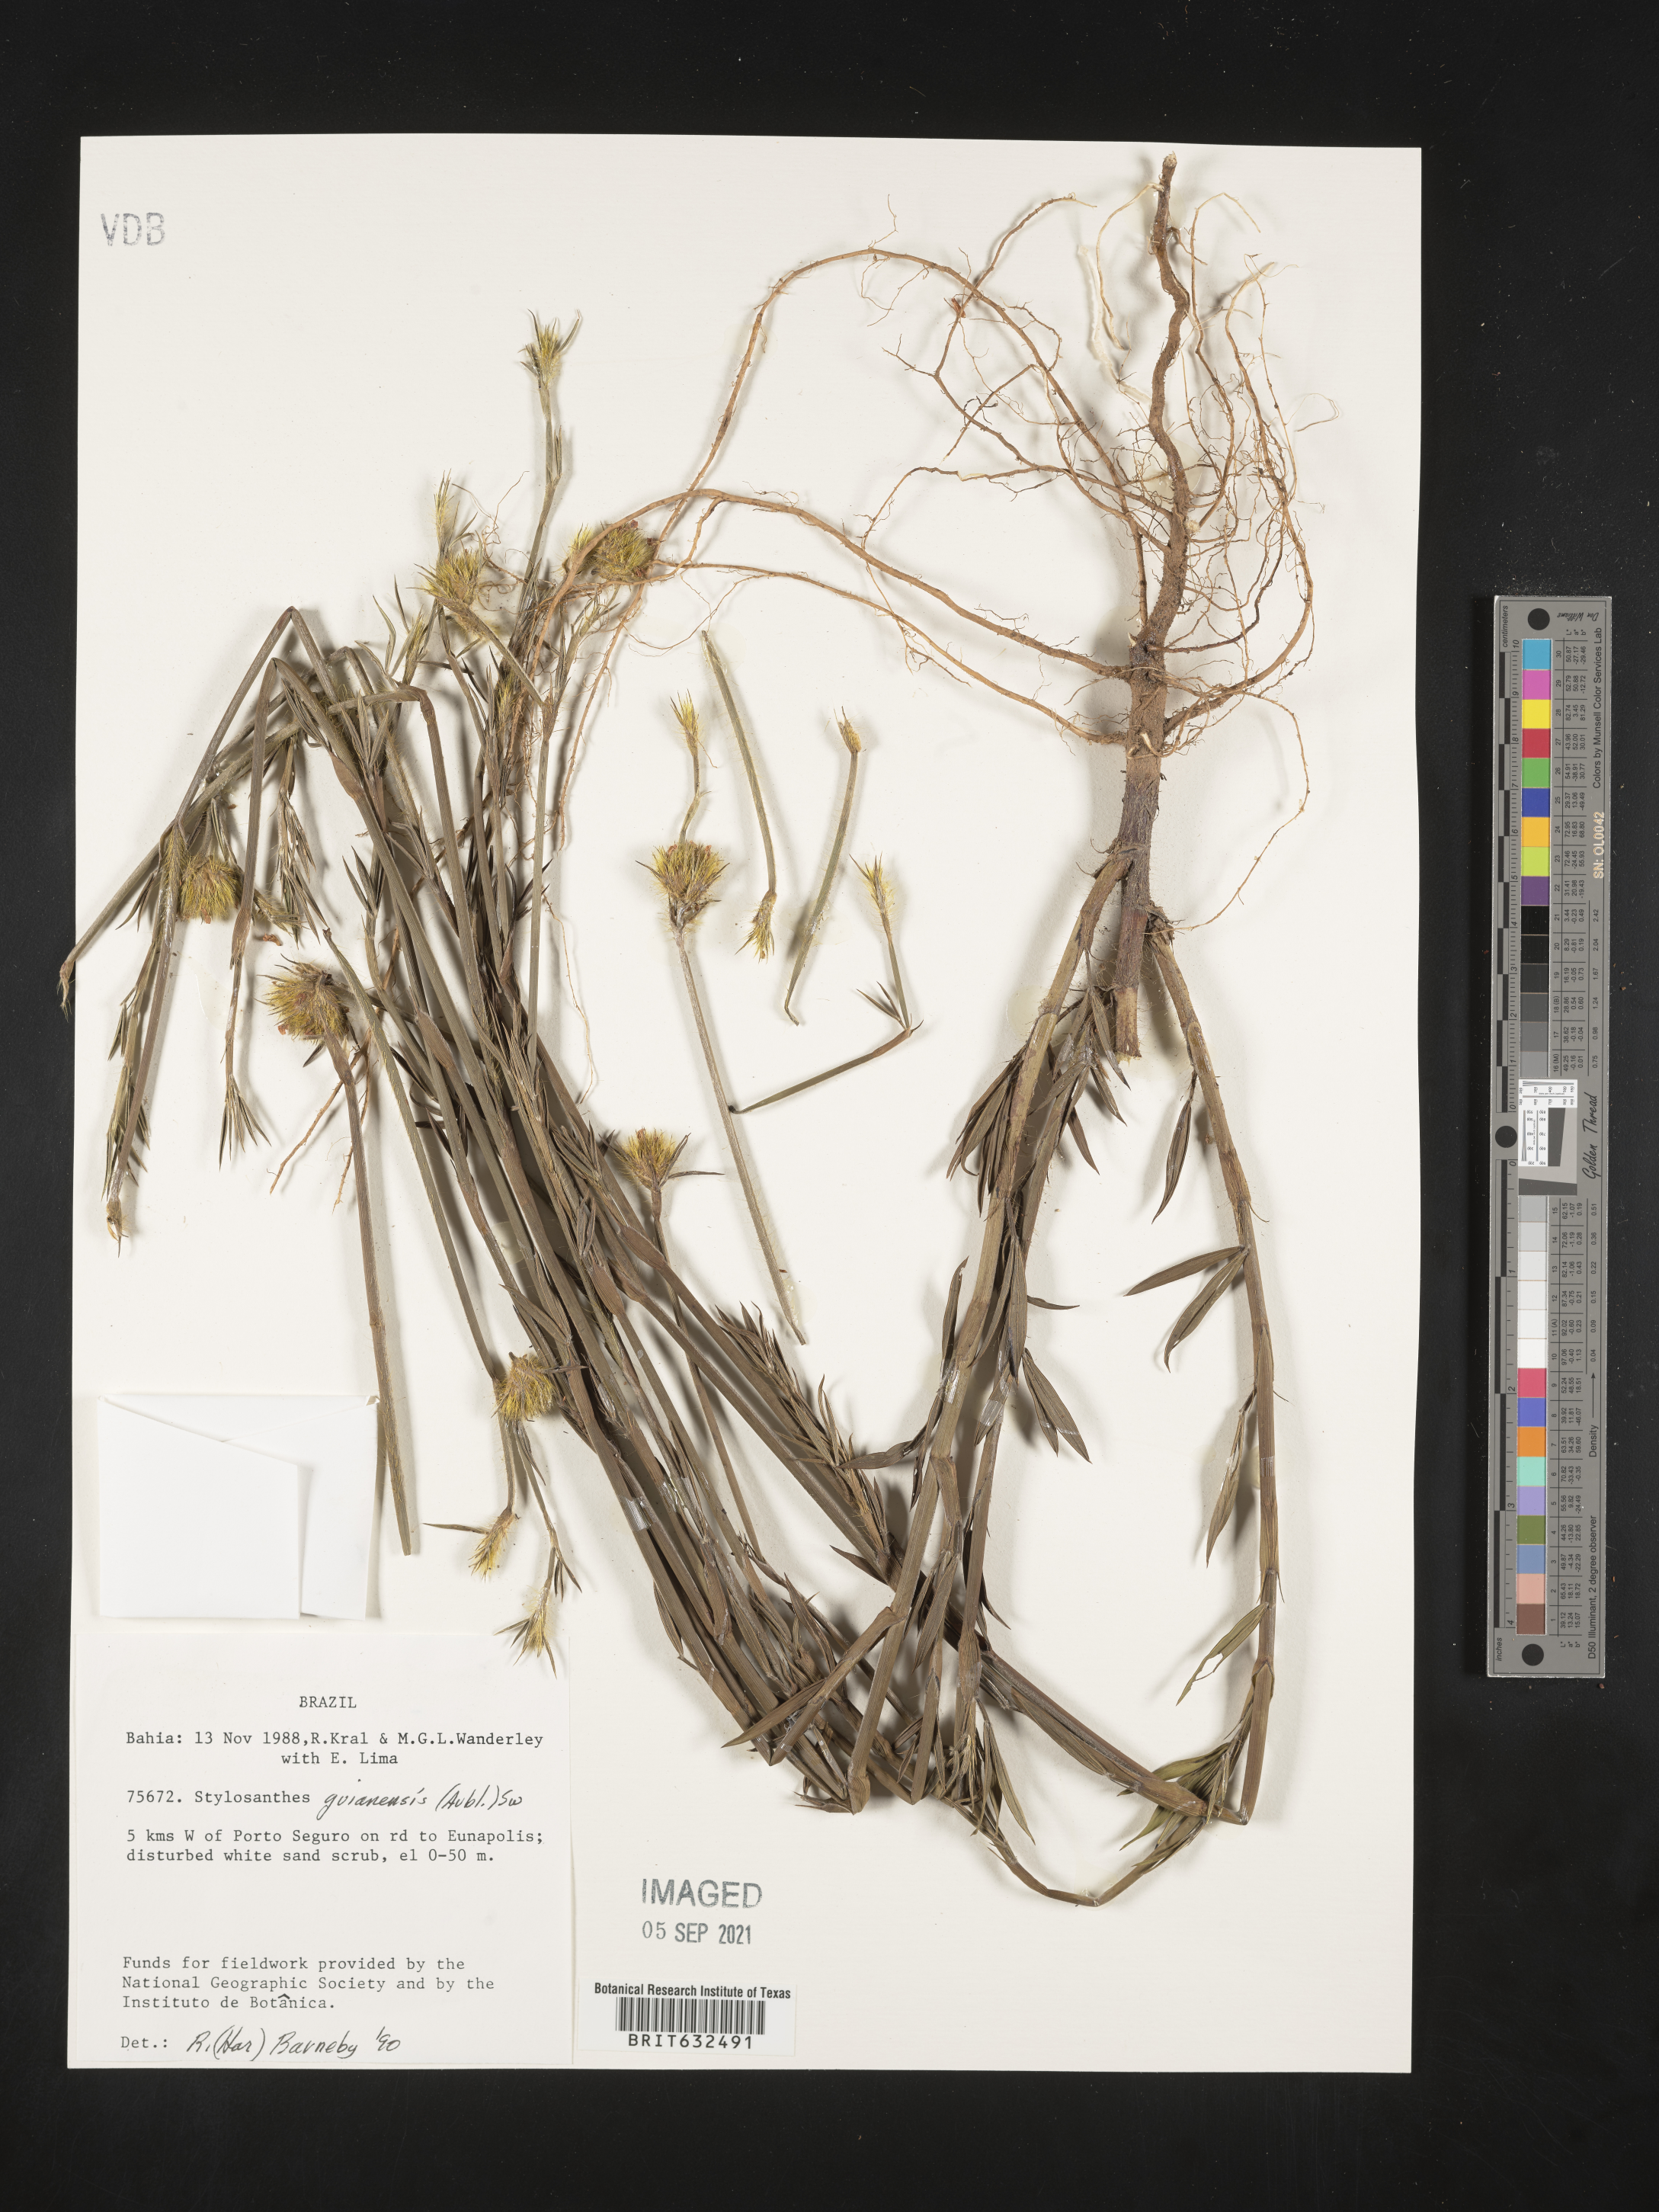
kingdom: Plantae
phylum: Tracheophyta
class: Magnoliopsida
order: Fabales
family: Fabaceae
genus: Stylosanthes
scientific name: Stylosanthes
